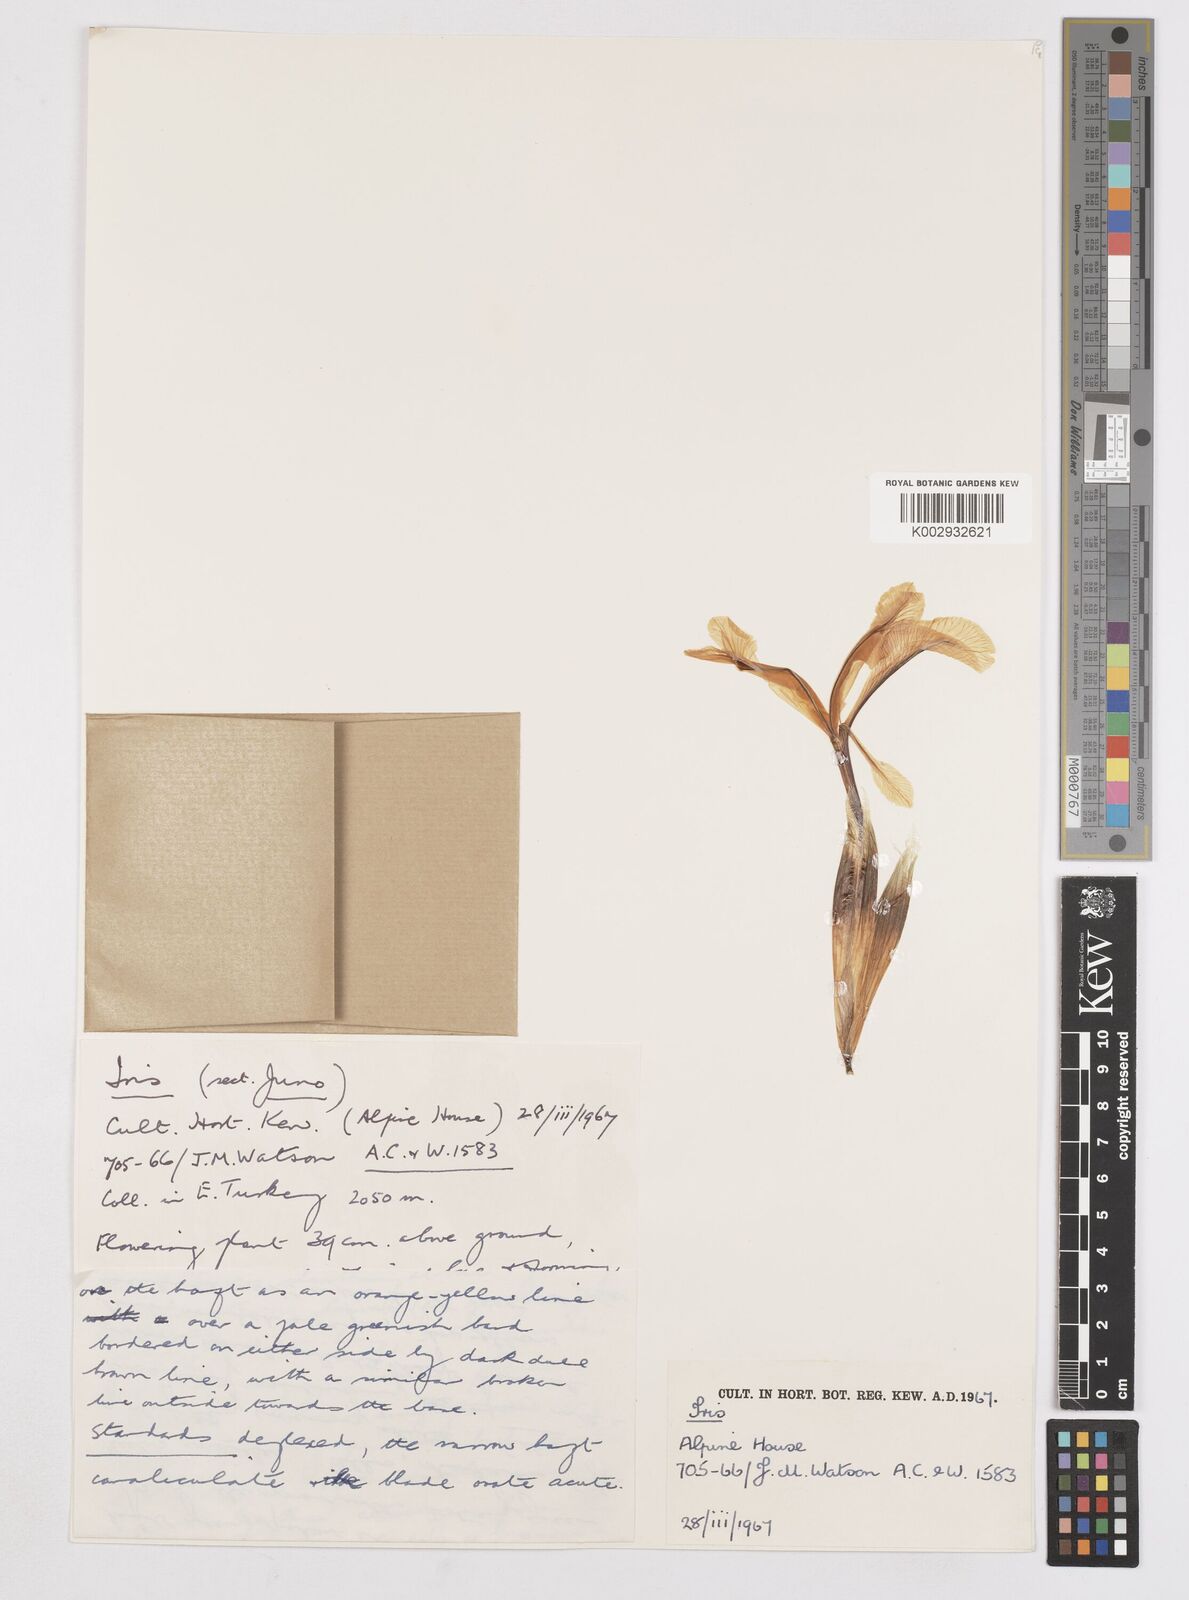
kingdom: Plantae
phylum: Tracheophyta
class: Liliopsida
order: Asparagales
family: Iridaceae
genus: Iris
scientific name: Iris
